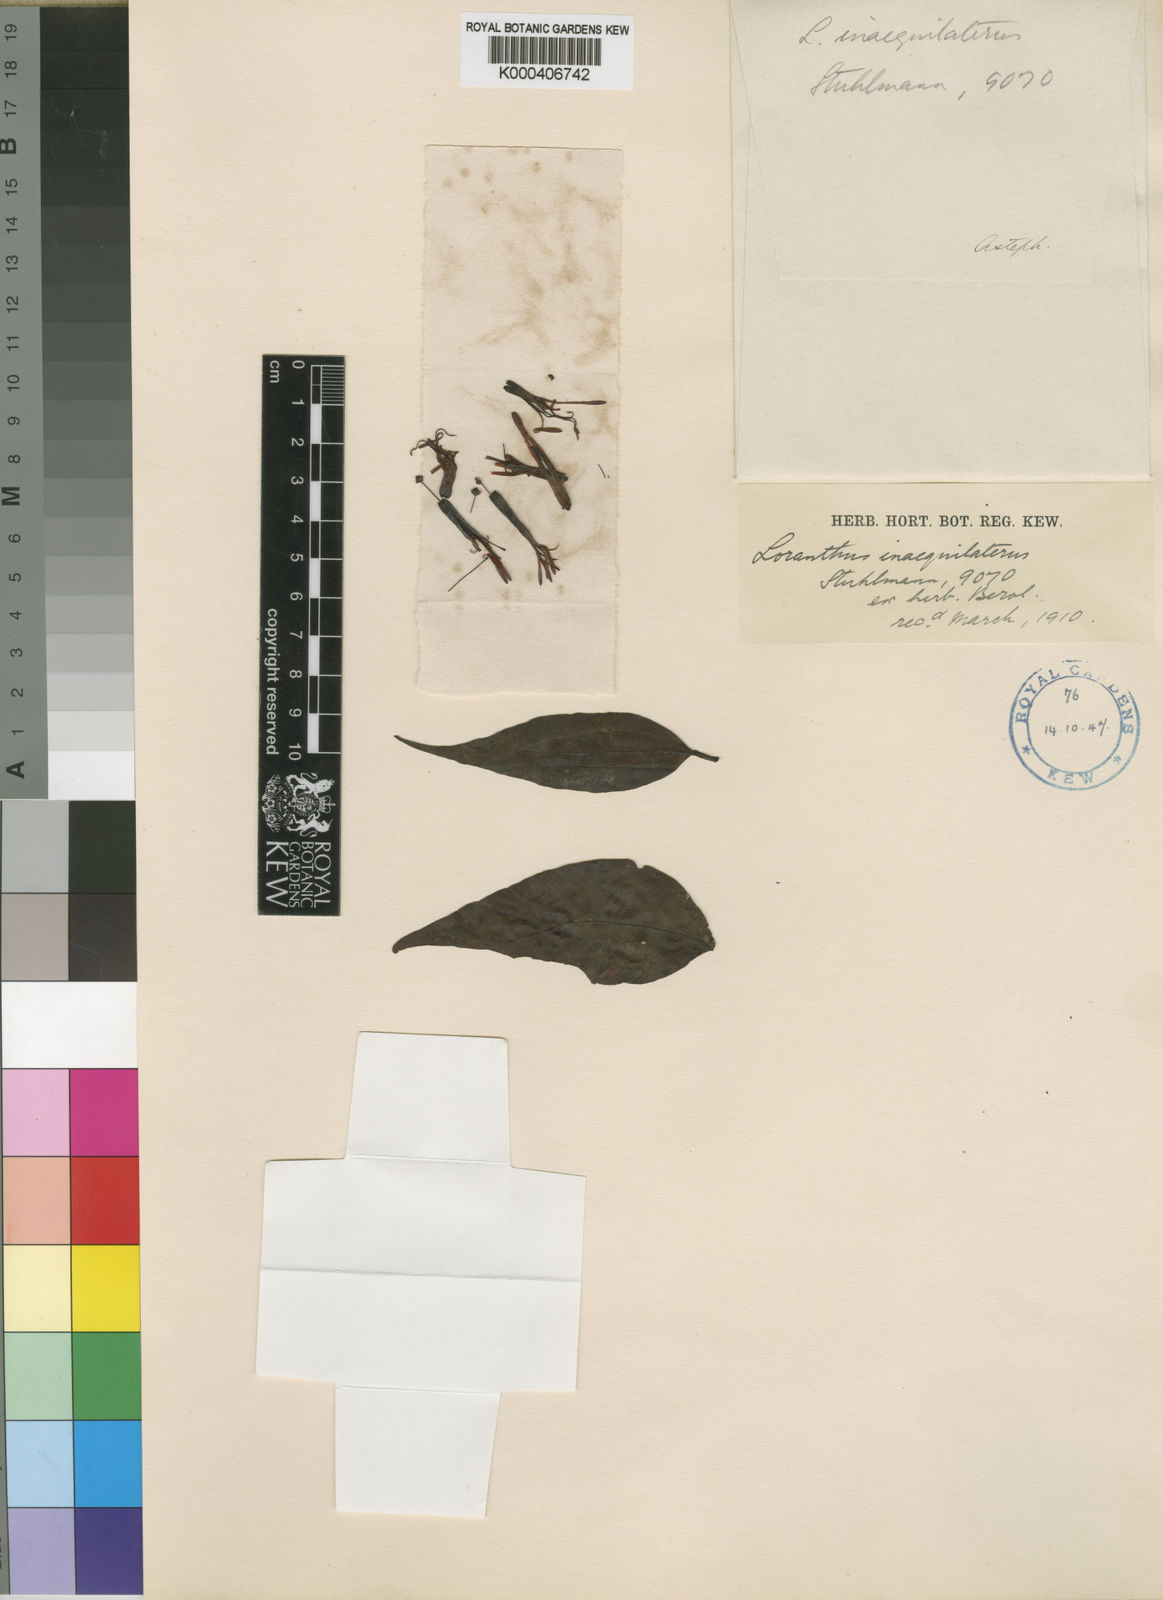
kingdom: Plantae
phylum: Tracheophyta
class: Magnoliopsida
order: Santalales
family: Loranthaceae
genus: Englerina
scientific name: Englerina inaequilatera
